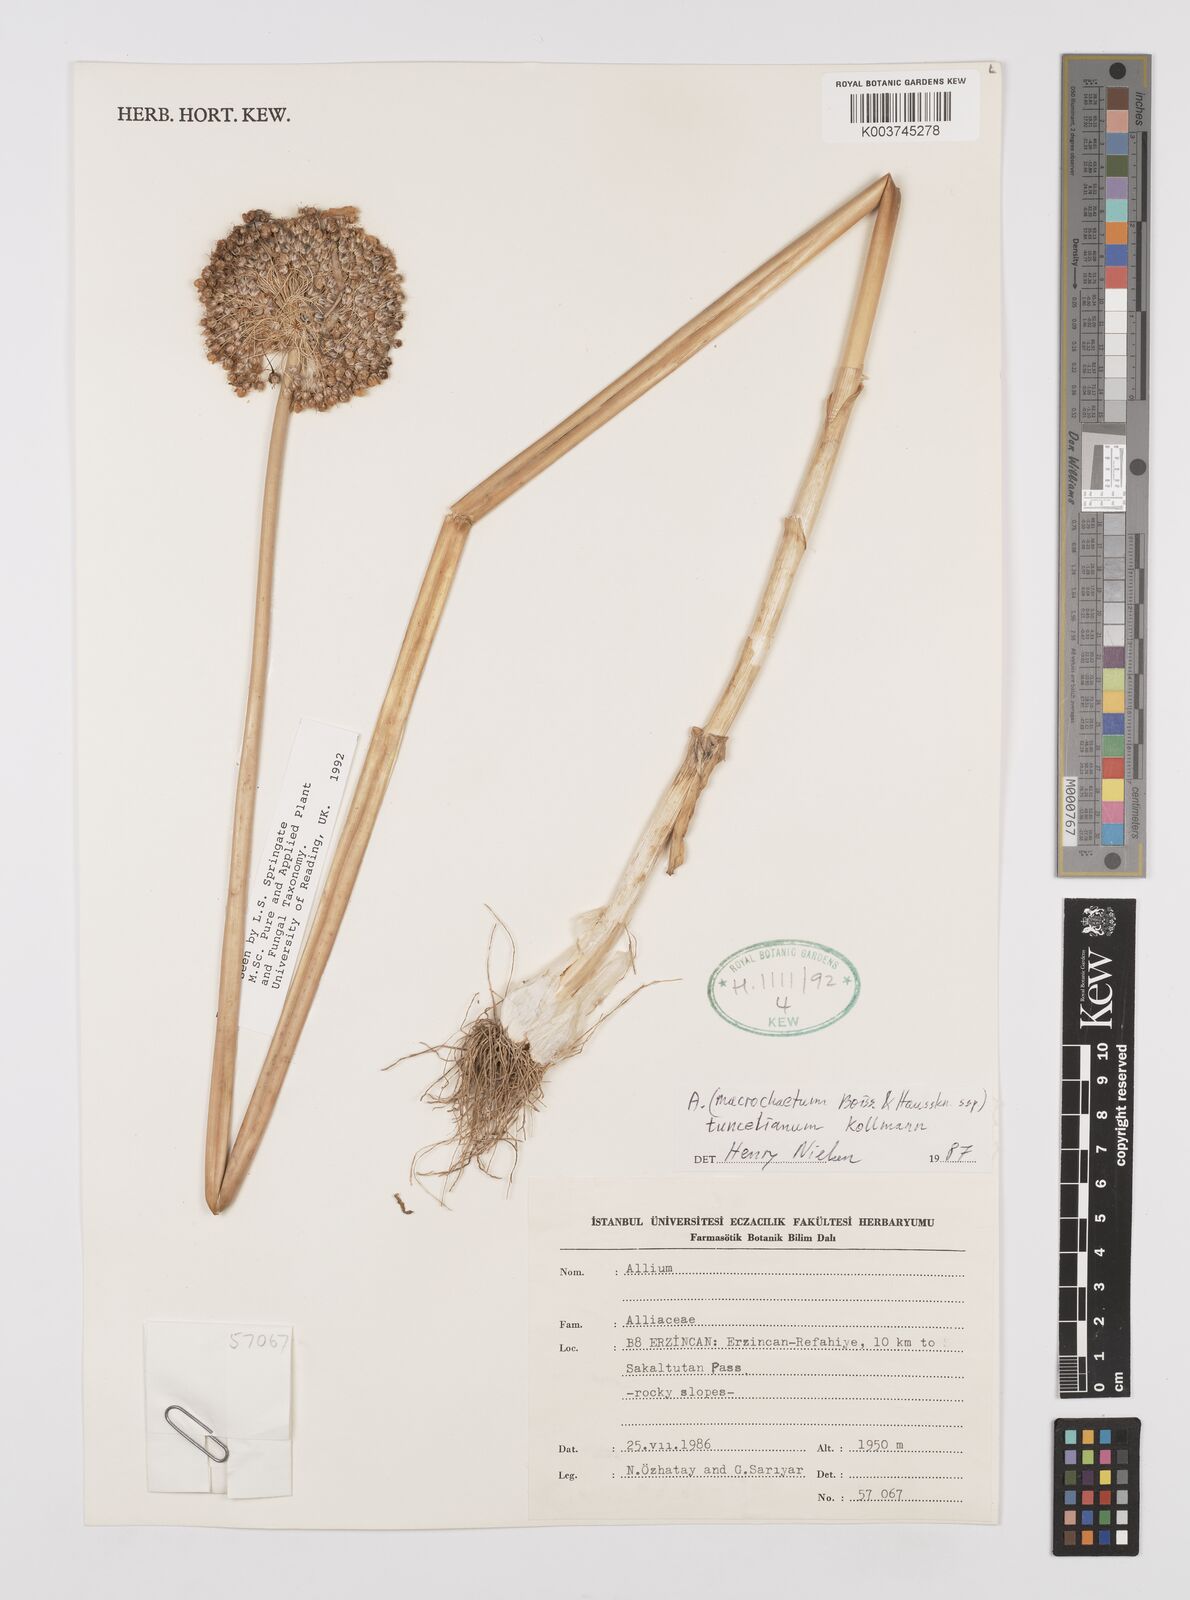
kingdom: Plantae
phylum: Tracheophyta
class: Liliopsida
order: Asparagales
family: Amaryllidaceae
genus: Allium
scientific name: Allium tuncelianum
